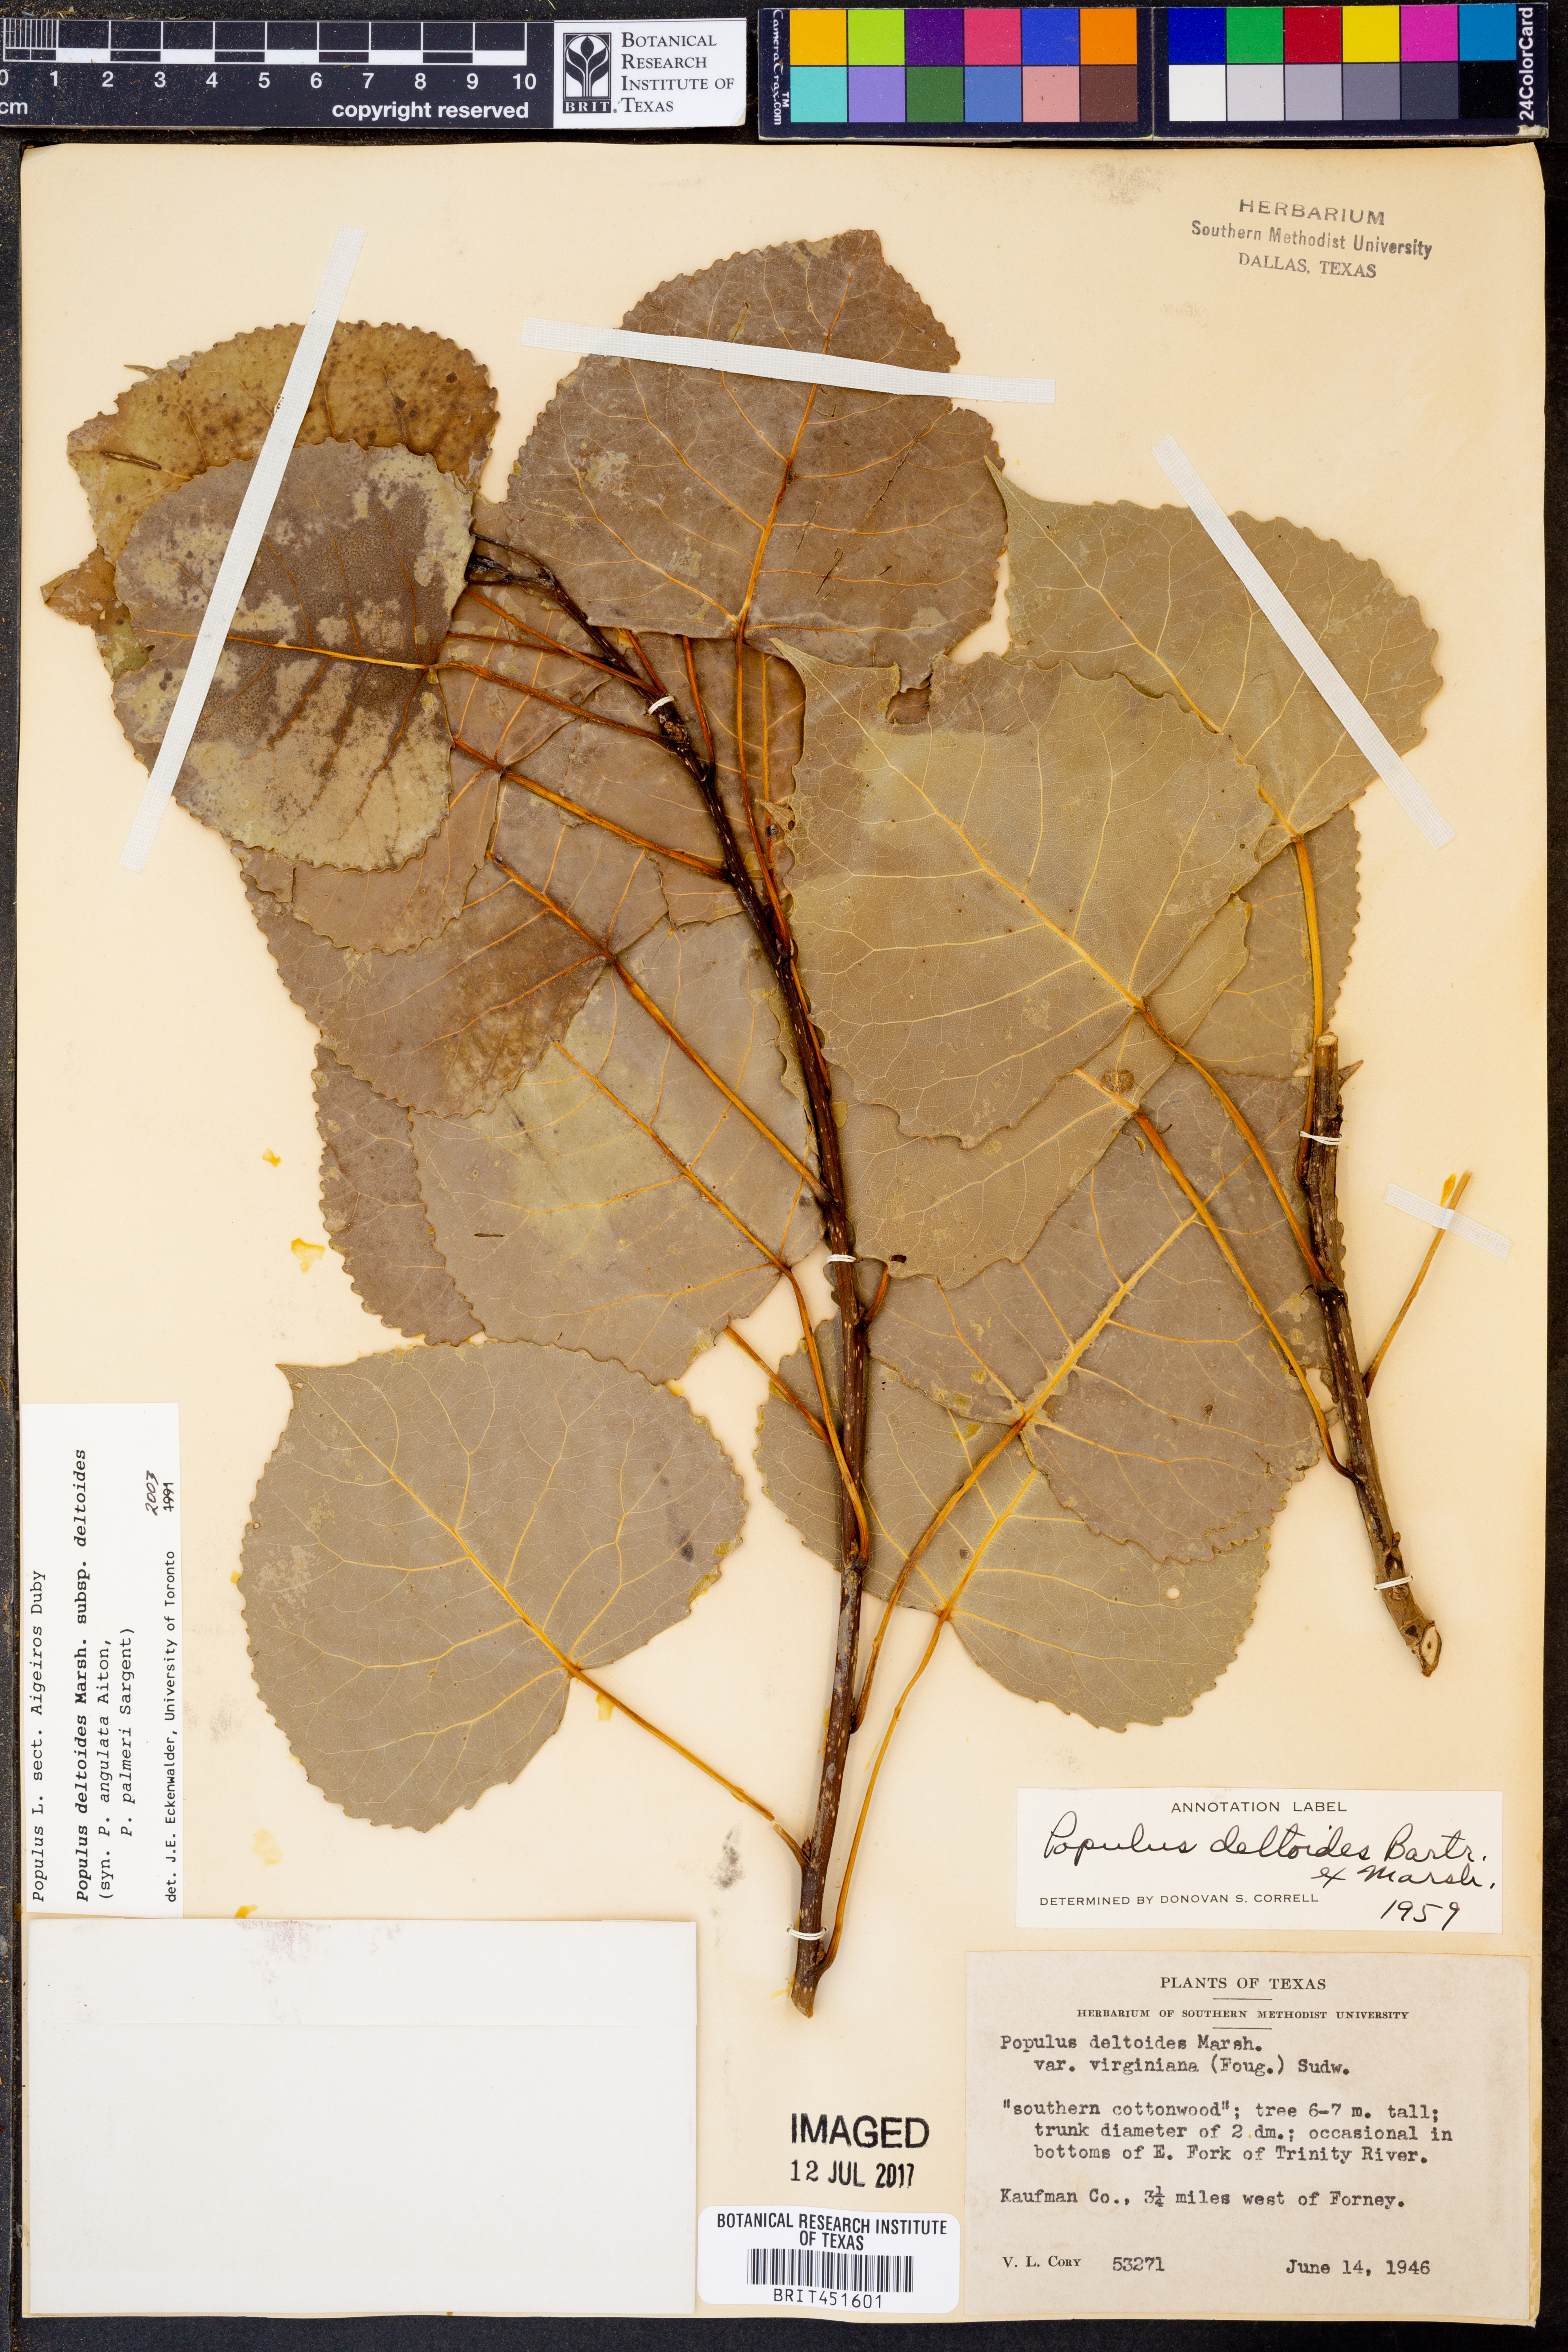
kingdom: Plantae
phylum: Tracheophyta
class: Magnoliopsida
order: Malpighiales
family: Salicaceae
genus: Populus
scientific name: Populus deltoides
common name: Eastern cottonwood
